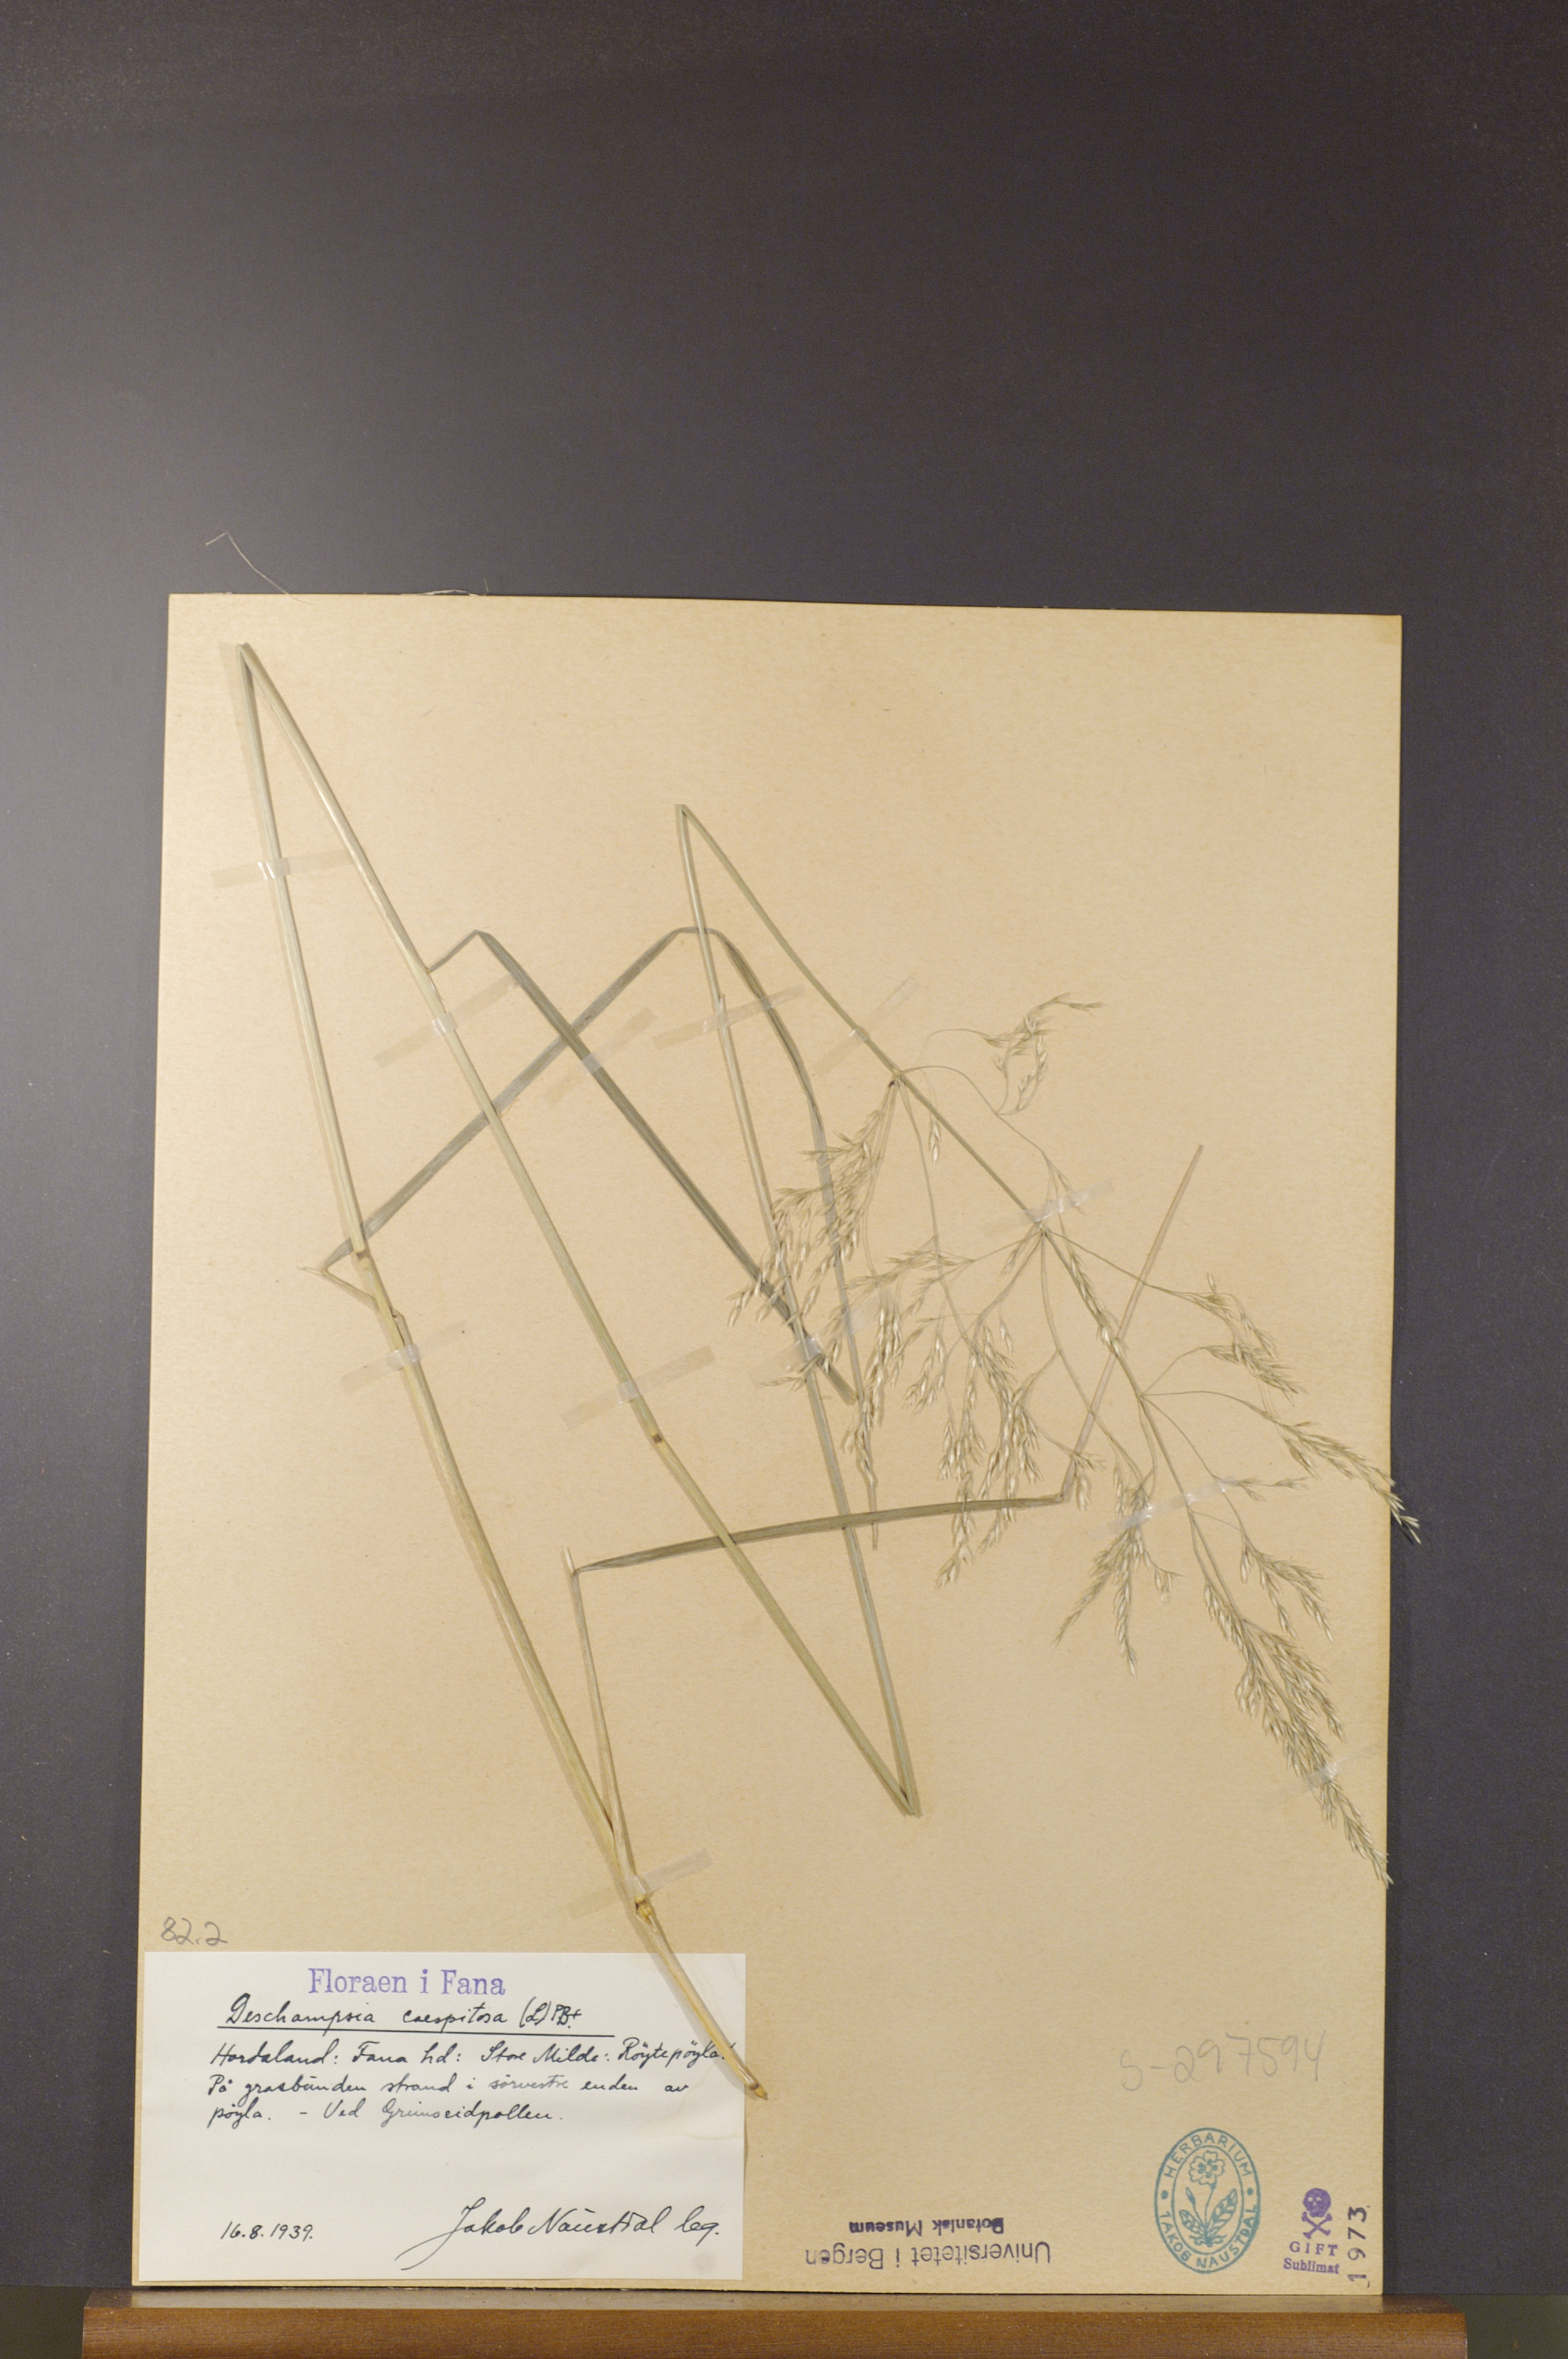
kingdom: Plantae
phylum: Tracheophyta
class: Liliopsida
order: Poales
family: Poaceae
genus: Deschampsia
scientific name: Deschampsia cespitosa
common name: Tufted hair-grass
